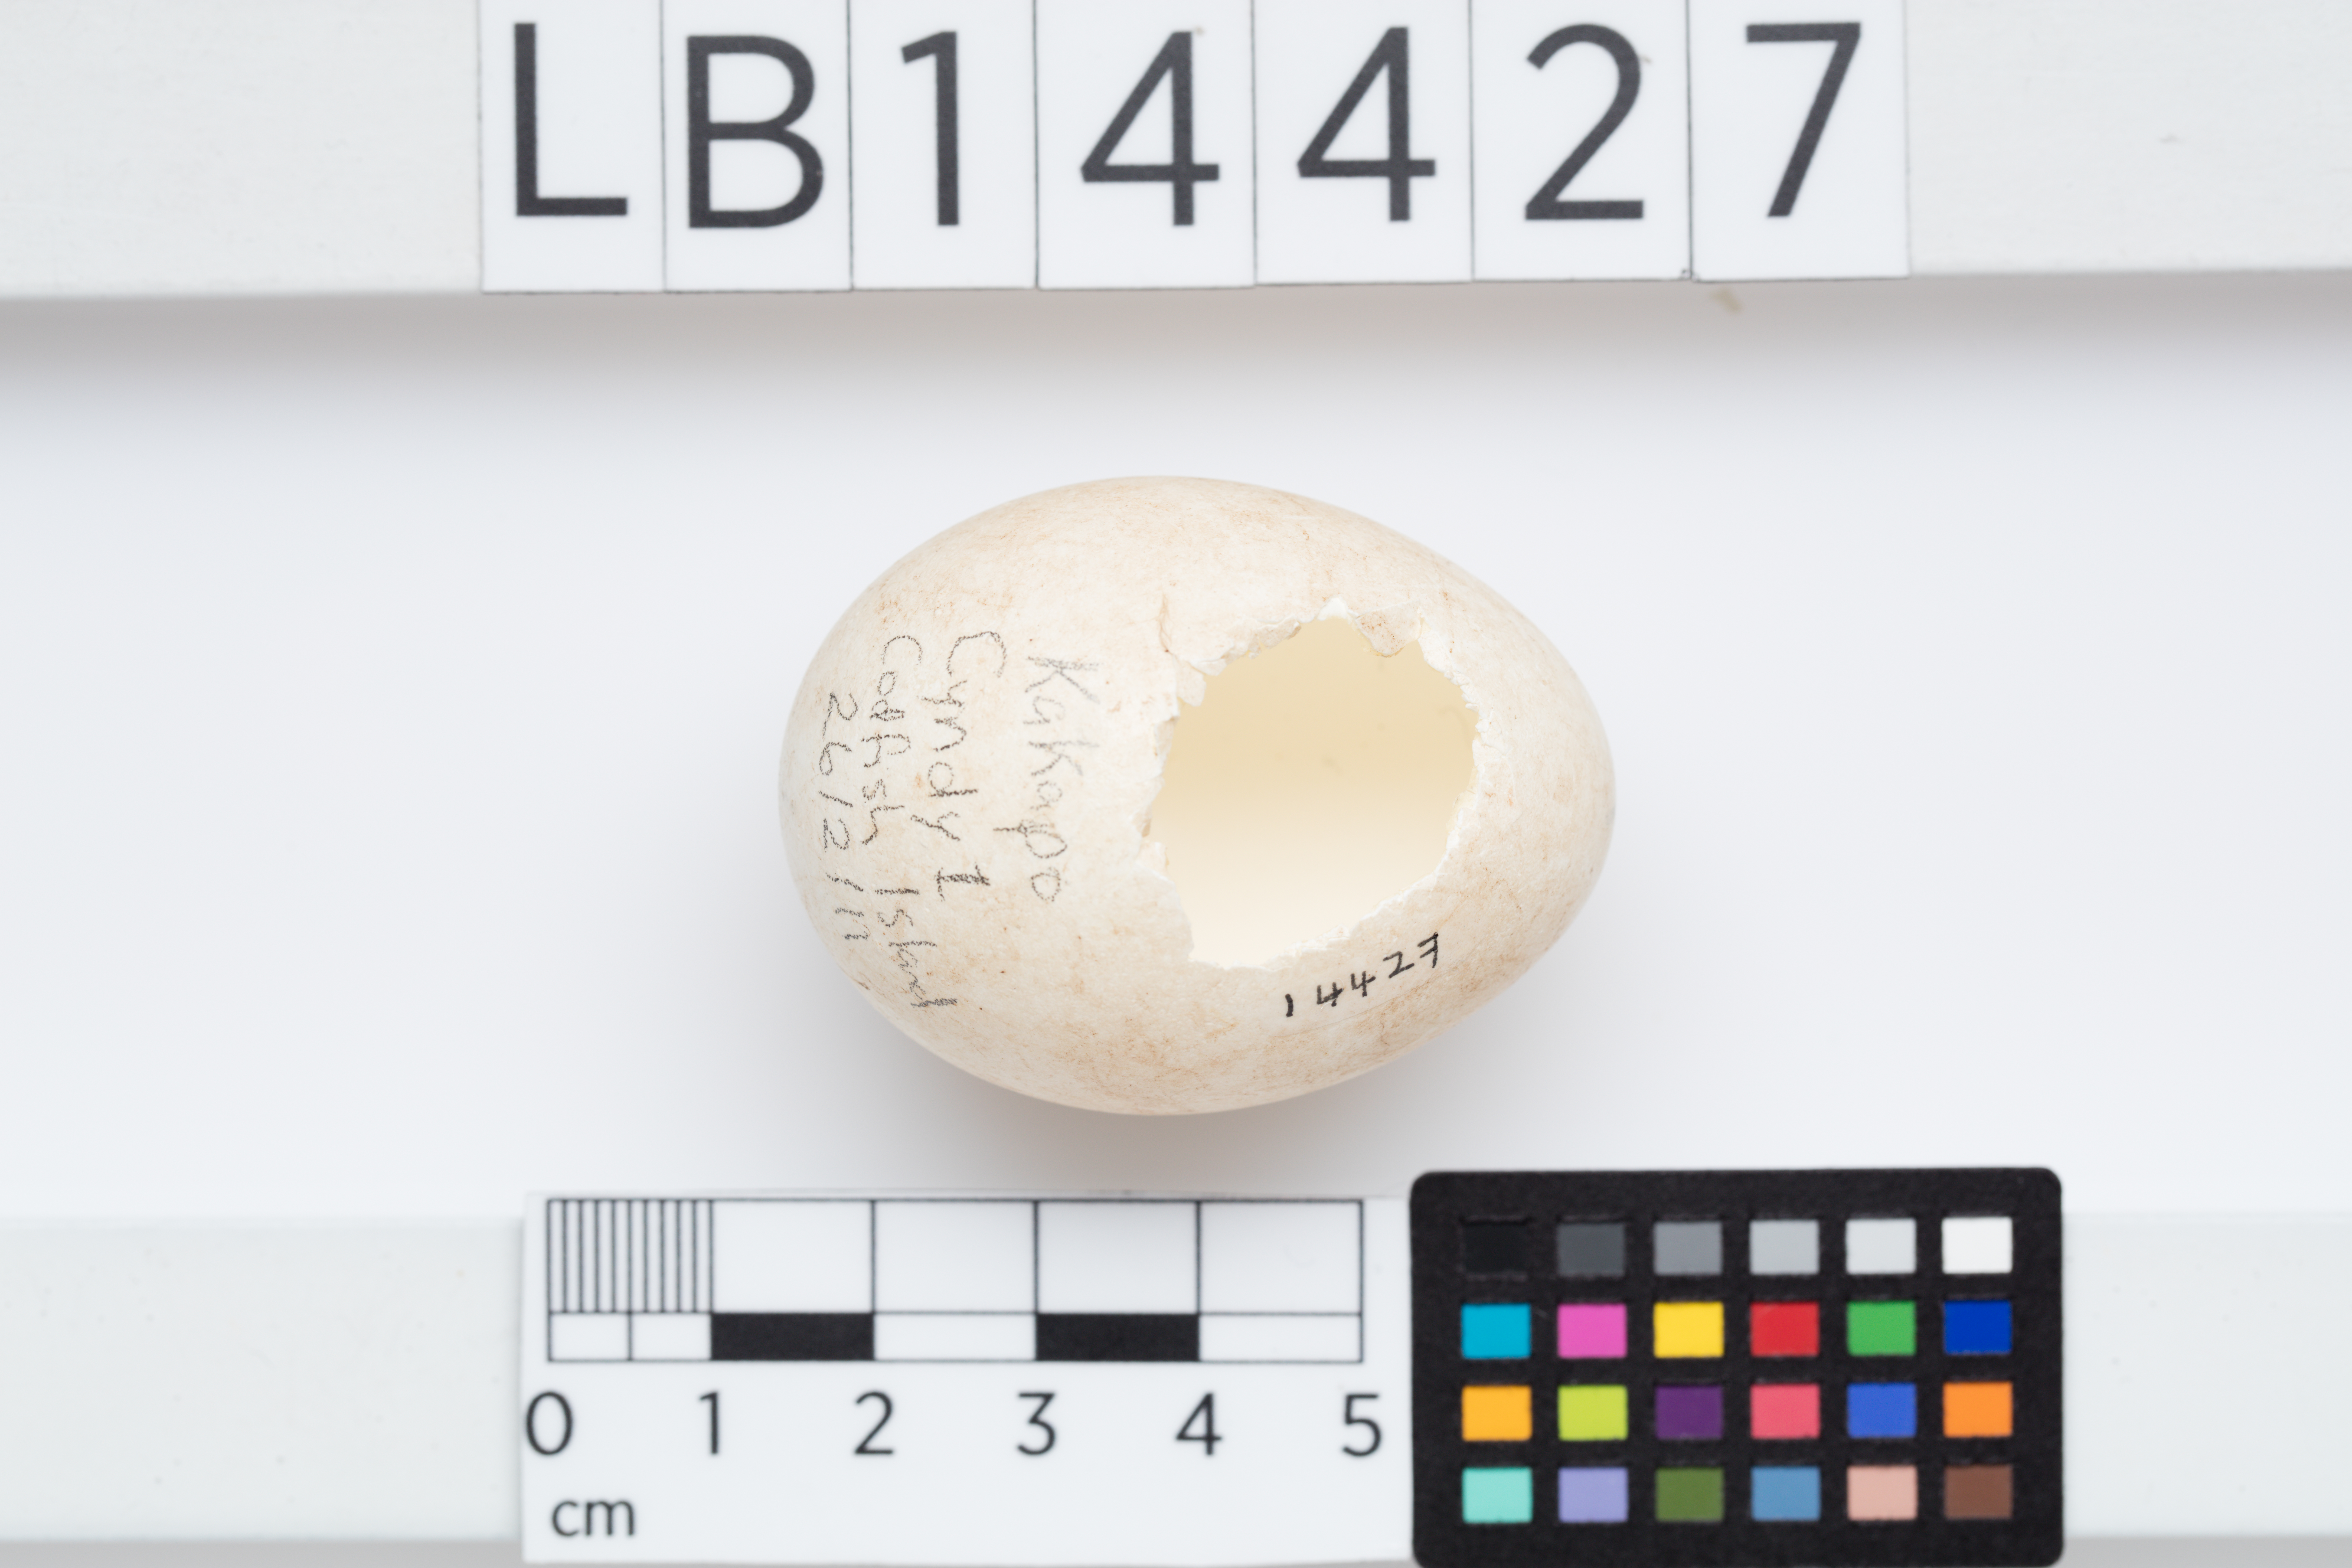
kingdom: Animalia
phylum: Chordata
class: Aves
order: Psittaciformes
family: Psittacidae
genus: Strigops
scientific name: Strigops habroptila
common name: Kakapo
